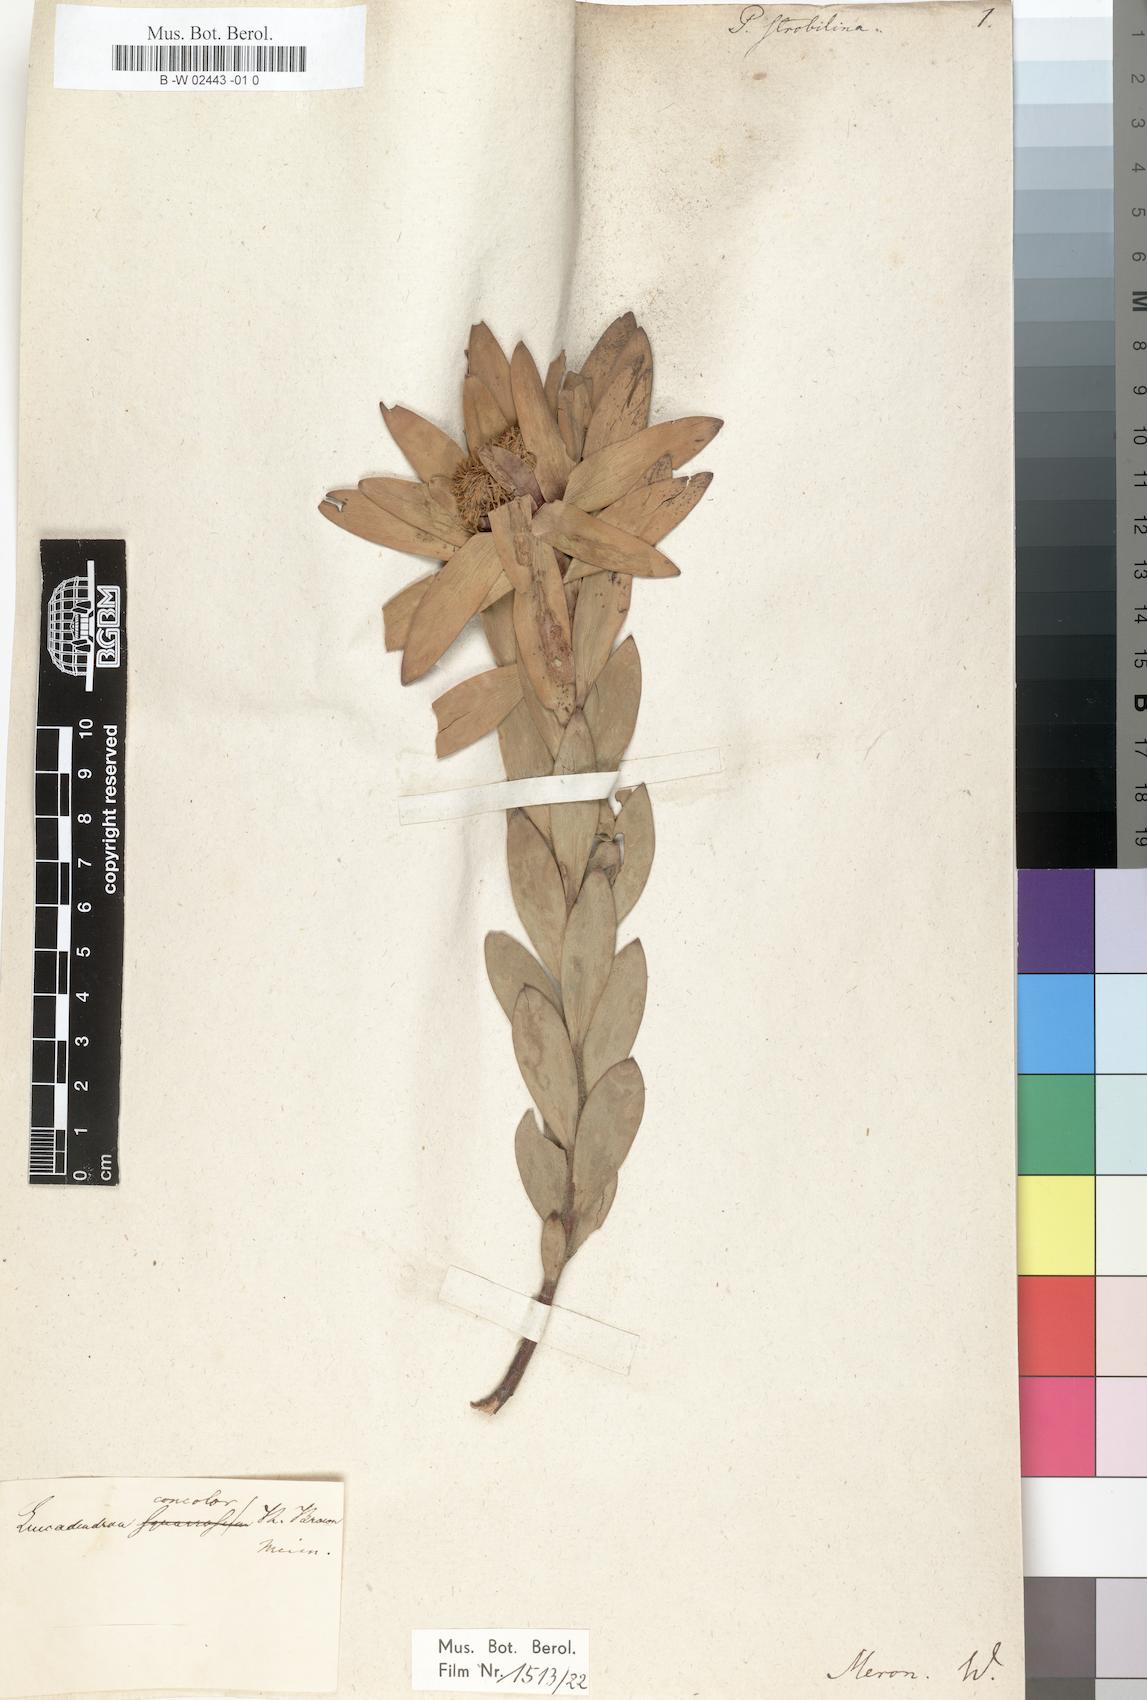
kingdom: Plantae
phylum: Tracheophyta
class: Magnoliopsida
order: Proteales
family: Proteaceae
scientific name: Proteaceae
